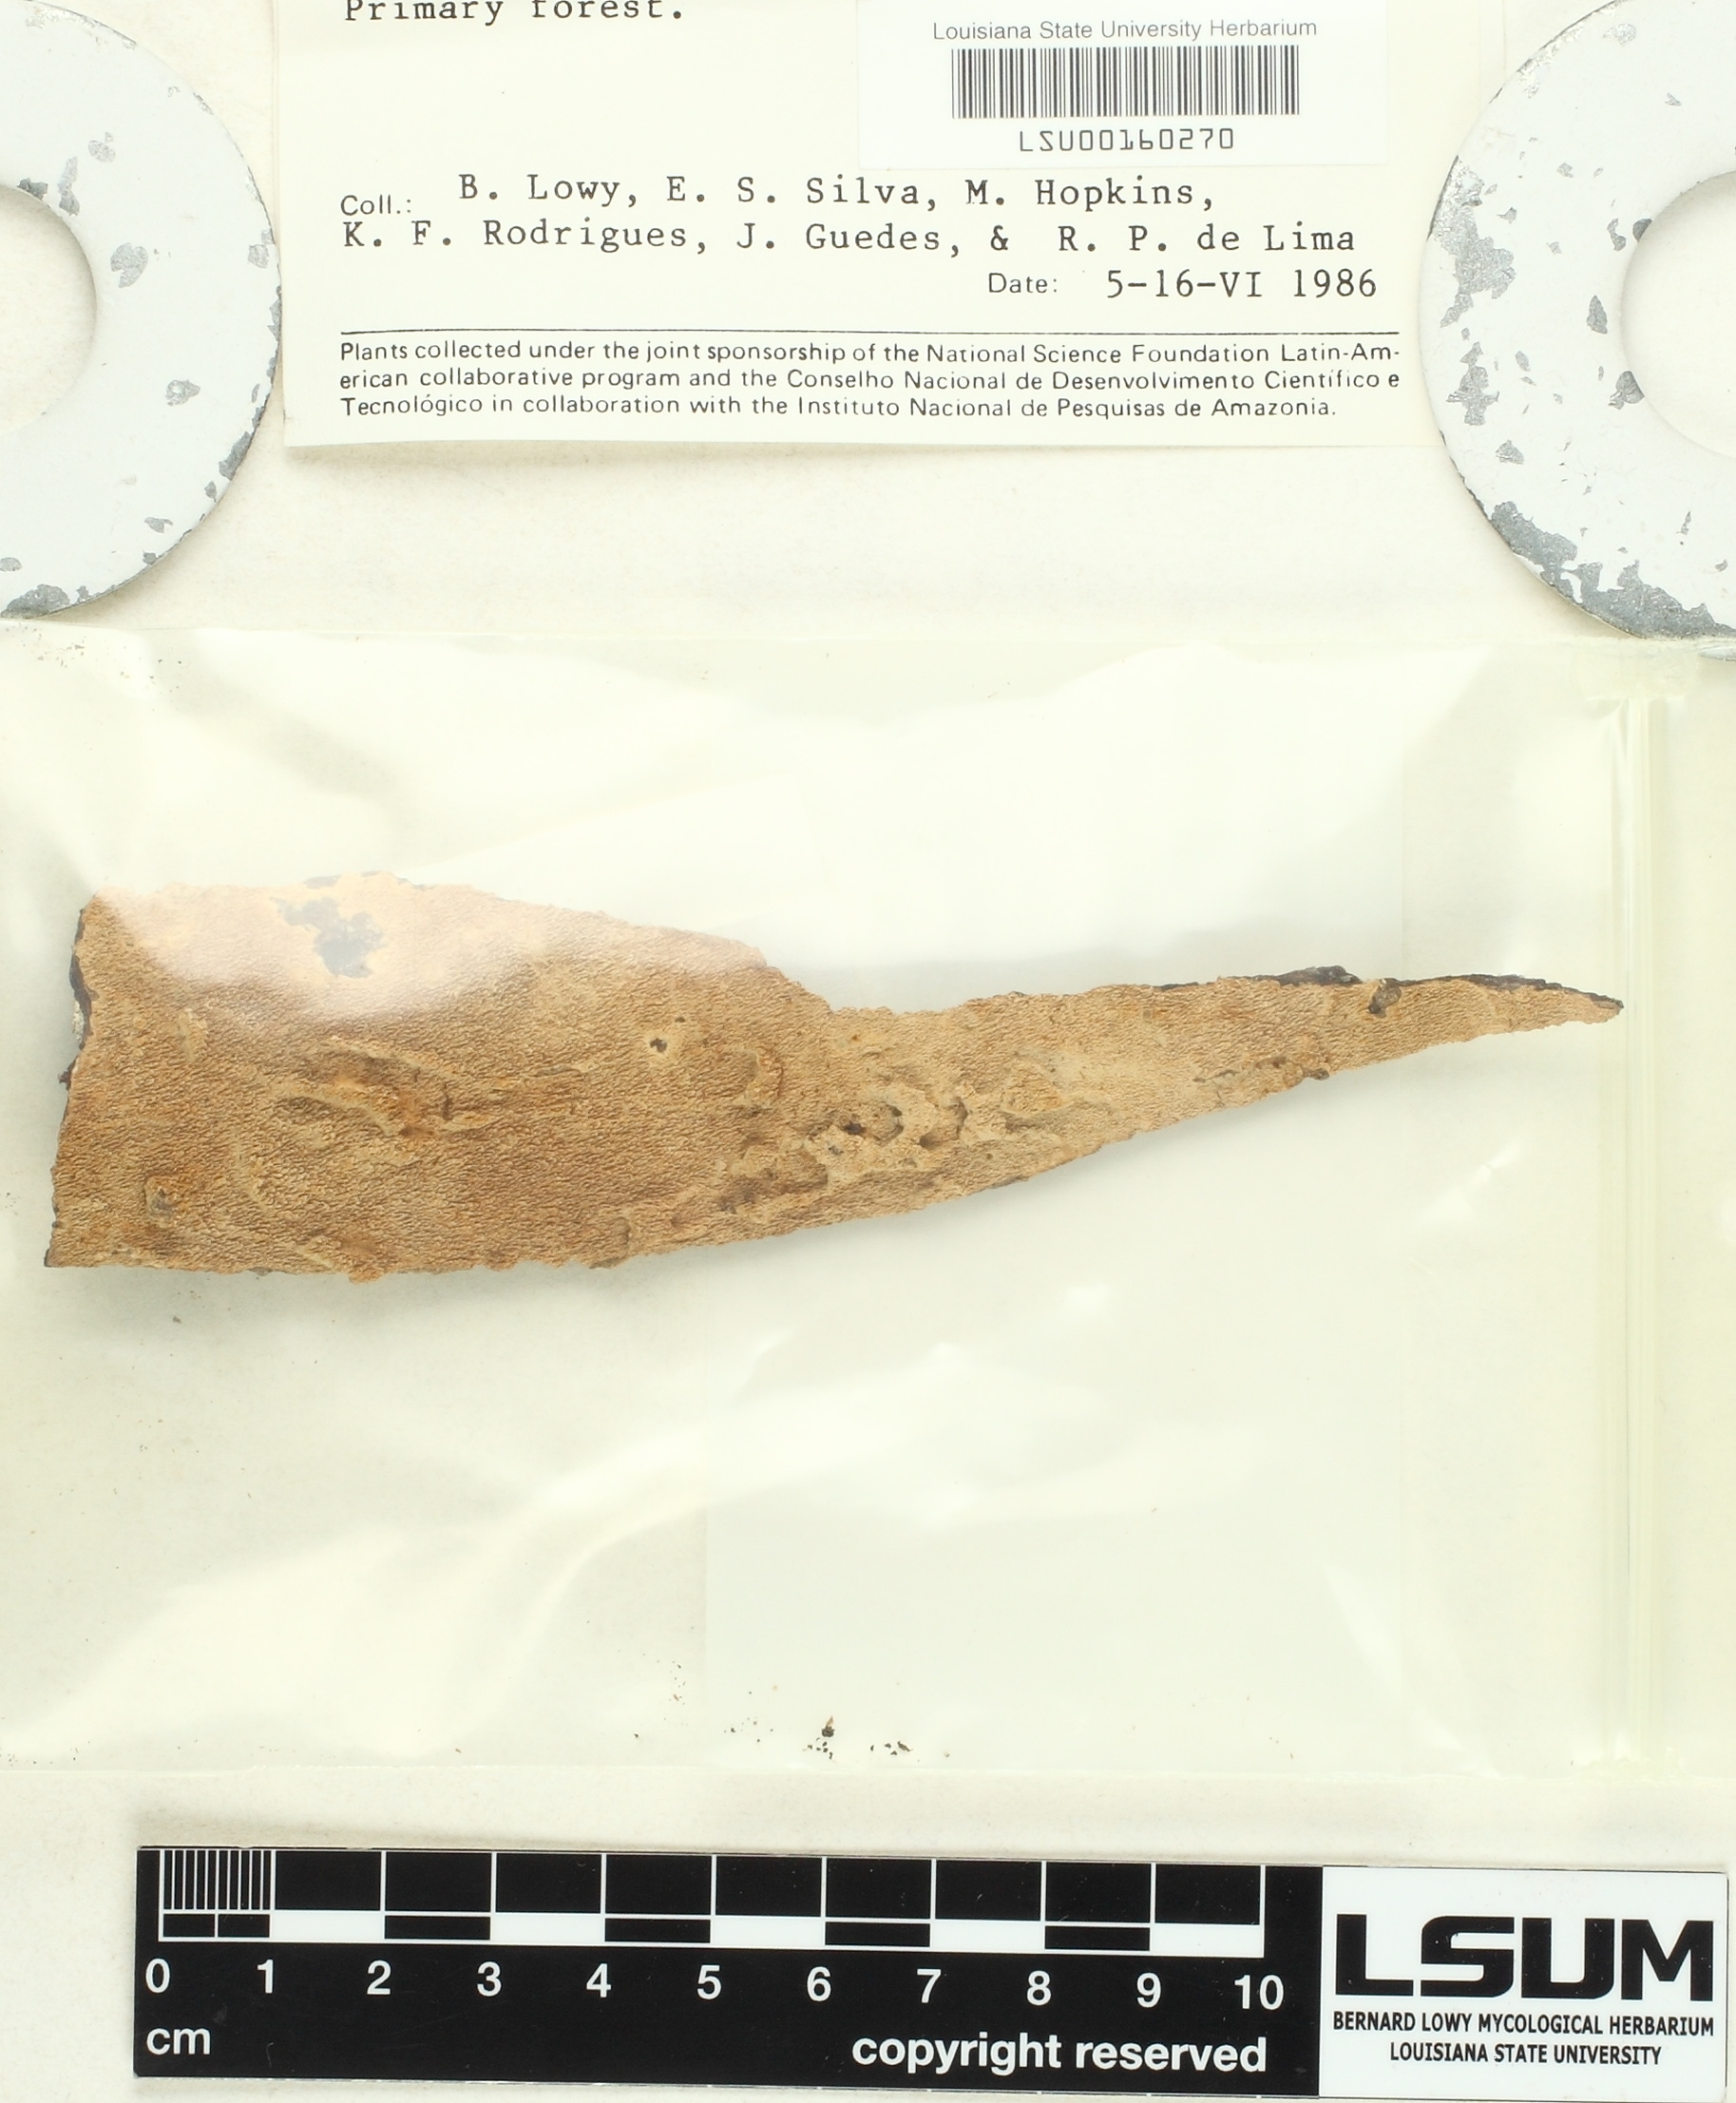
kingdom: Fungi
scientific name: Fungi
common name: Fungi
